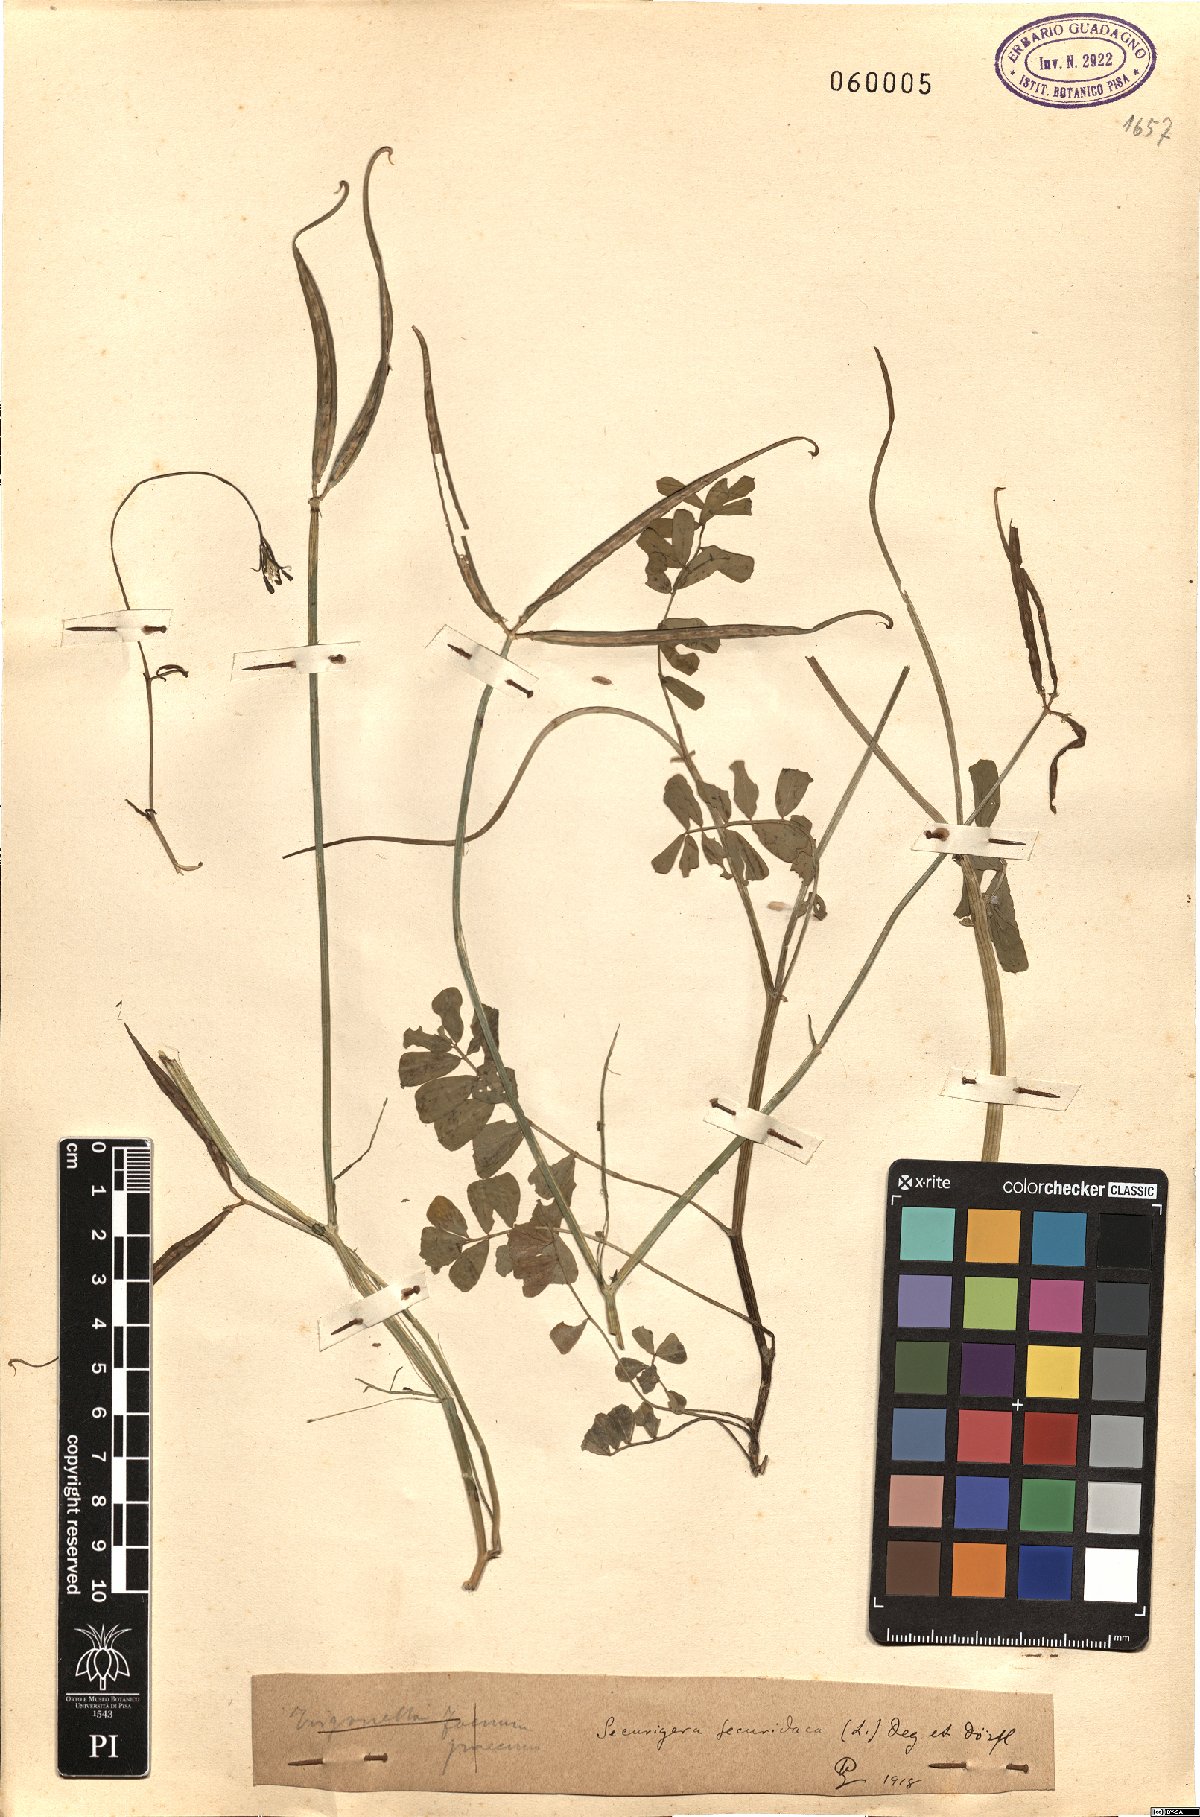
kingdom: Plantae
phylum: Tracheophyta
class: Magnoliopsida
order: Fabales
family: Fabaceae
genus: Coronilla
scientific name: Coronilla securidaca
